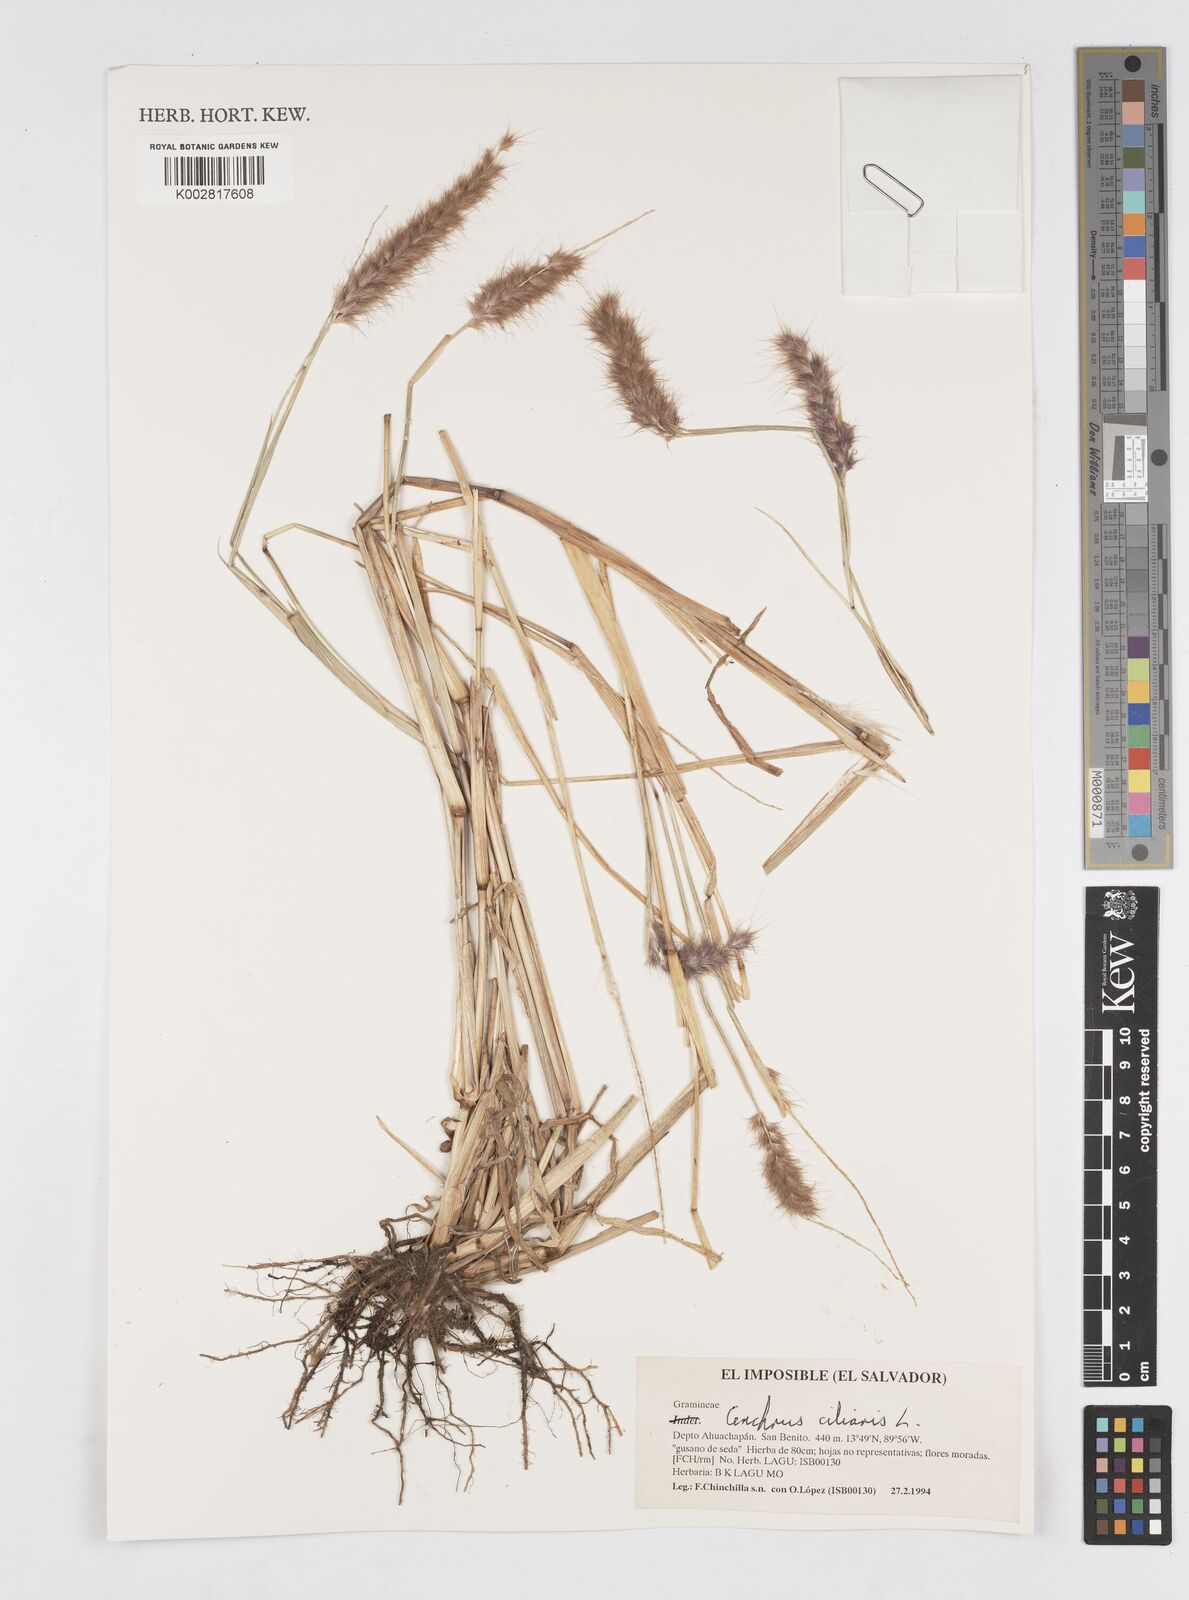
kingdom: Plantae
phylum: Tracheophyta
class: Liliopsida
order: Poales
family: Poaceae
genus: Cenchrus
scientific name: Cenchrus ciliaris
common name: Buffelgrass
